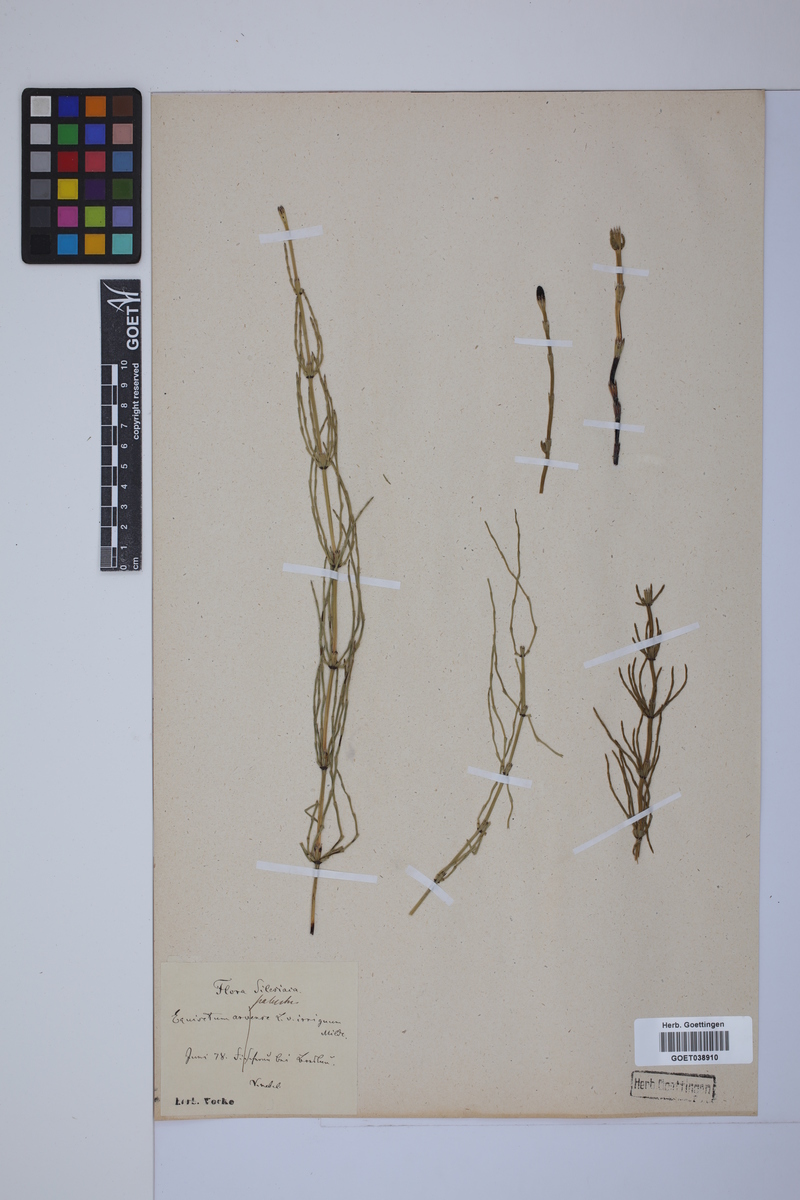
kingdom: Plantae
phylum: Tracheophyta
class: Polypodiopsida
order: Equisetales
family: Equisetaceae
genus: Equisetum
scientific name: Equisetum palustre
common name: Marsh horsetail
